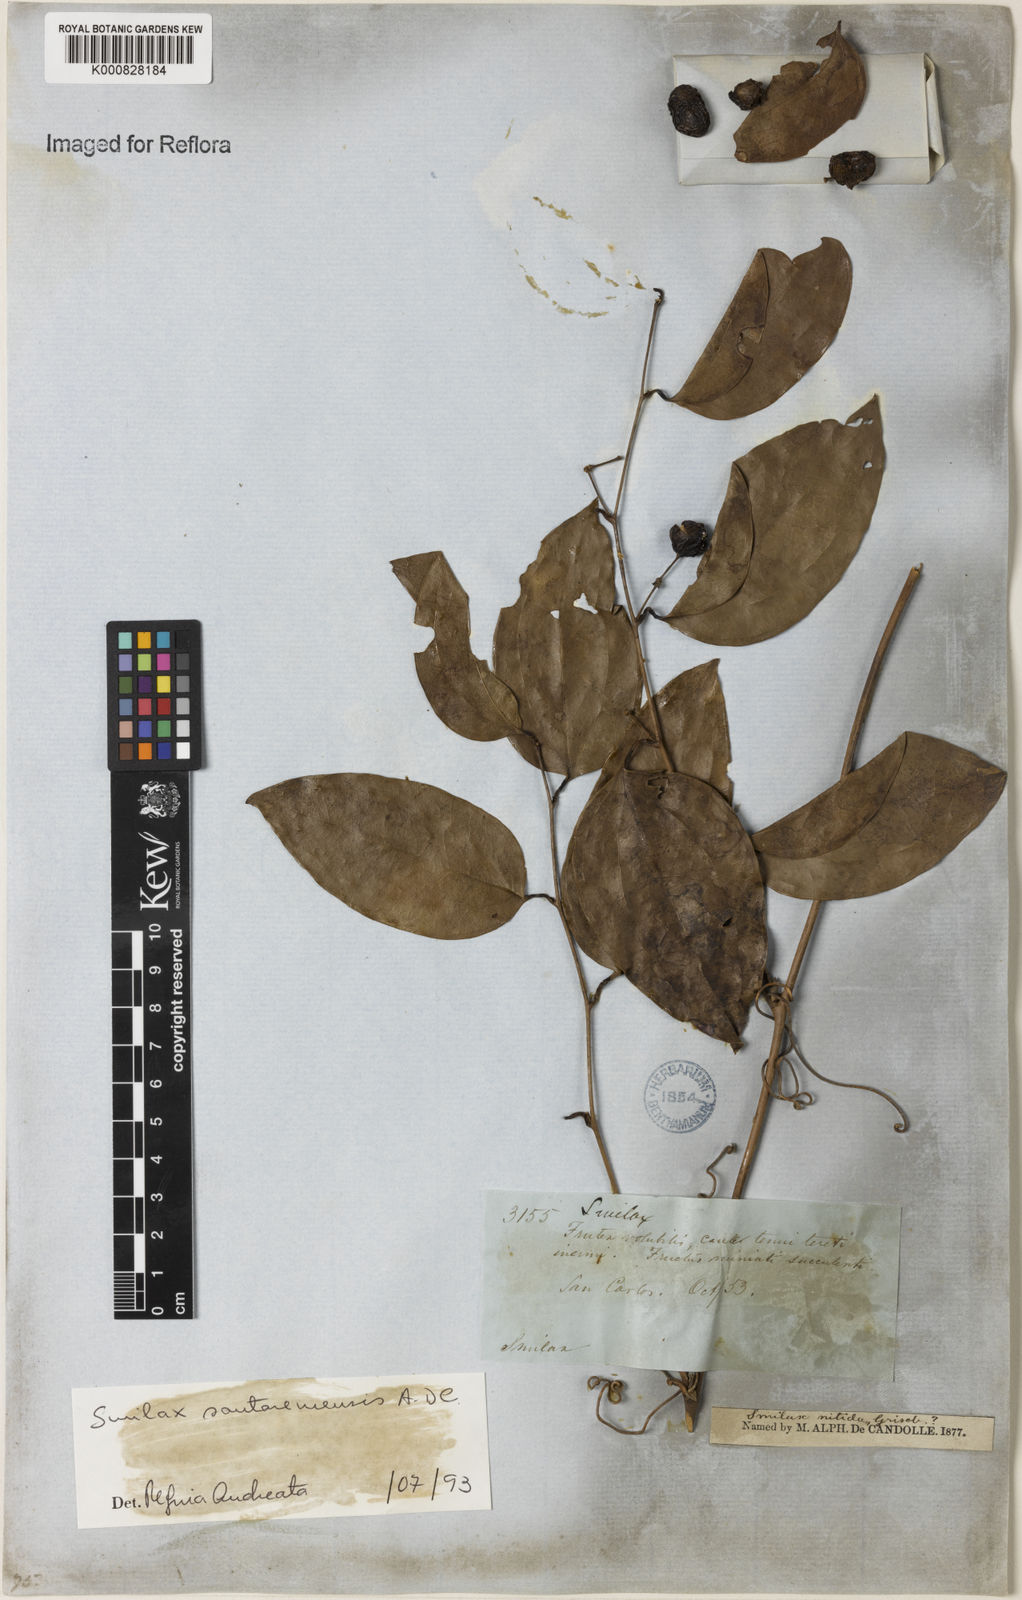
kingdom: Plantae
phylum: Tracheophyta
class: Liliopsida
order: Liliales
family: Smilacaceae
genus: Smilax
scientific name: Smilax santaremensis
